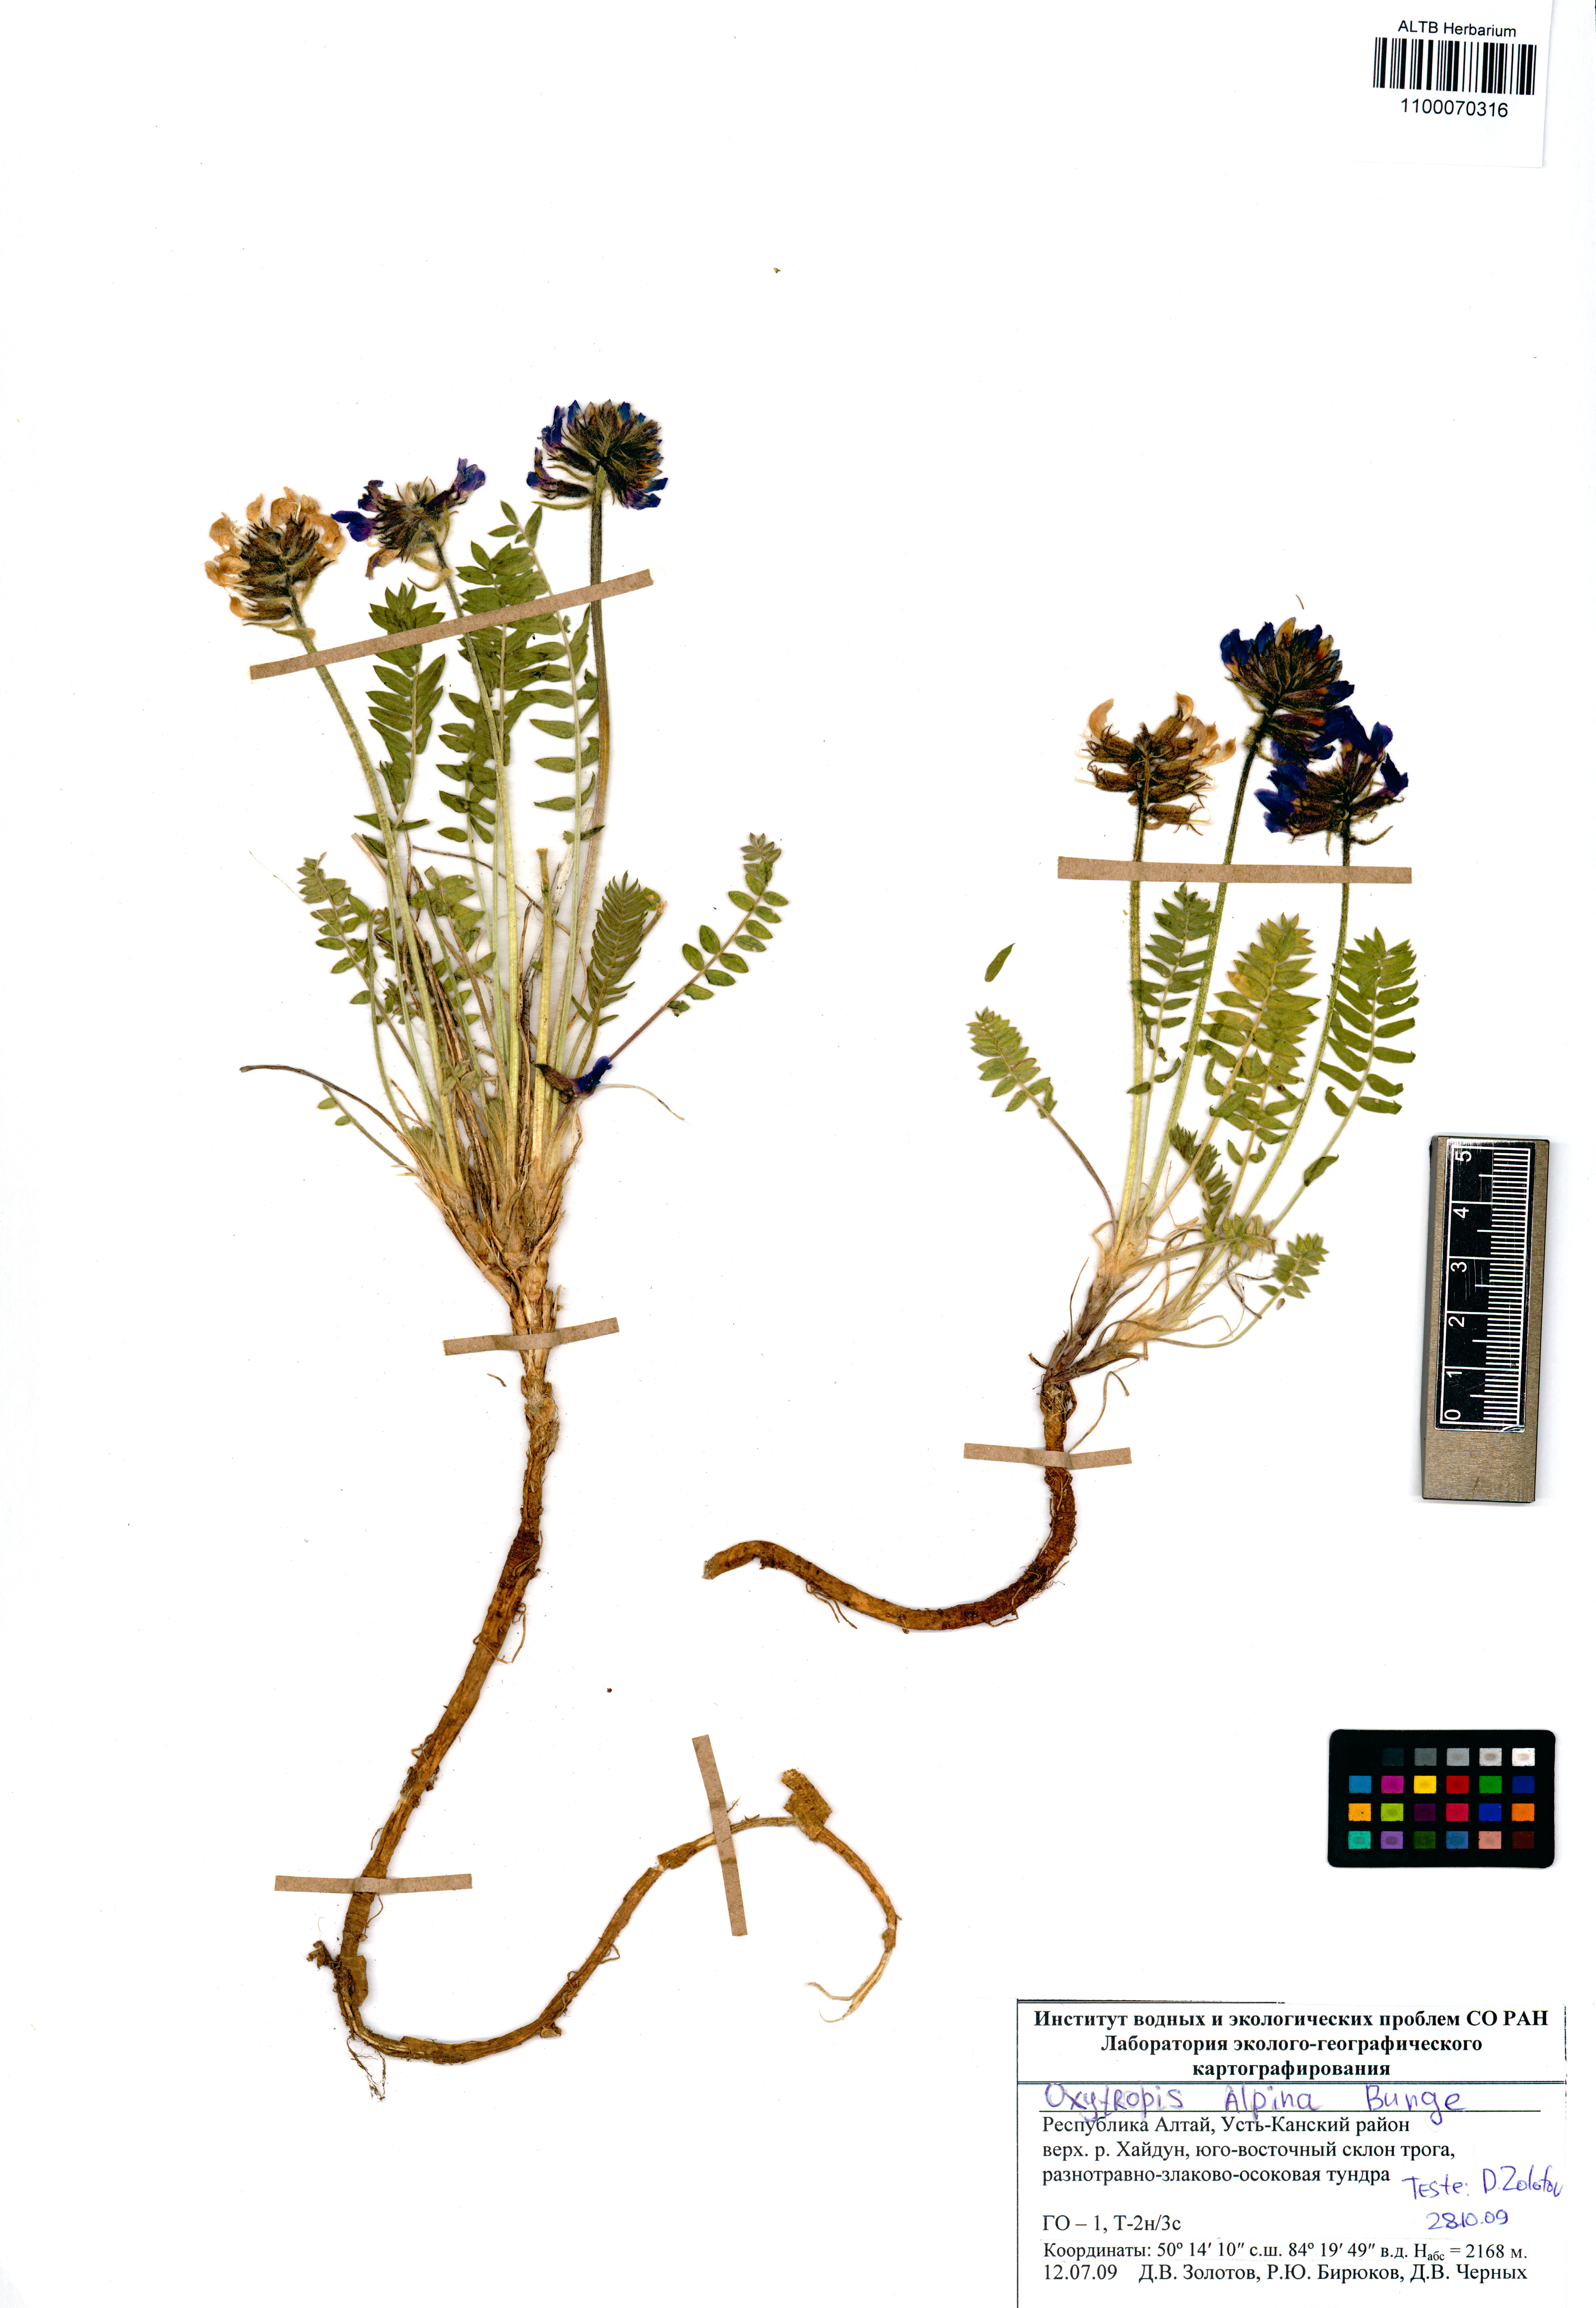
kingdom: Plantae
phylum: Tracheophyta
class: Magnoliopsida
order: Fabales
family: Fabaceae
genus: Oxytropis
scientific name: Oxytropis alpina
